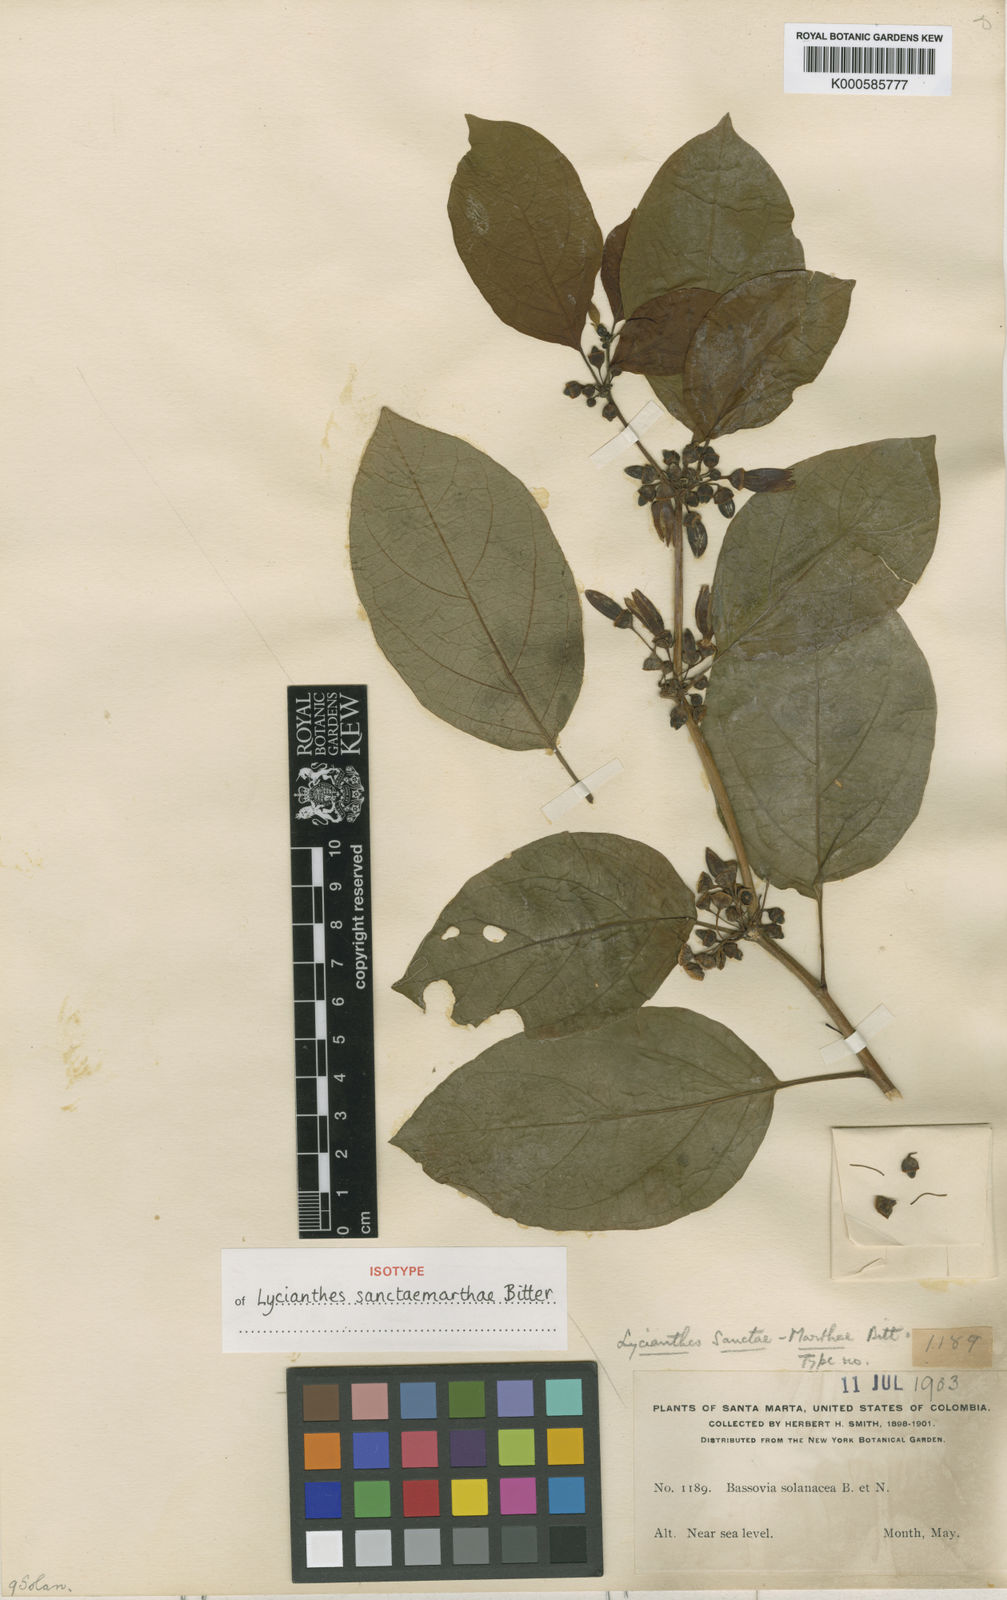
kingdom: Plantae
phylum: Tracheophyta
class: Magnoliopsida
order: Solanales
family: Solanaceae
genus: Lycianthes
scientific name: Lycianthes sanctae-marthae
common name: Santa marta lycianthes
